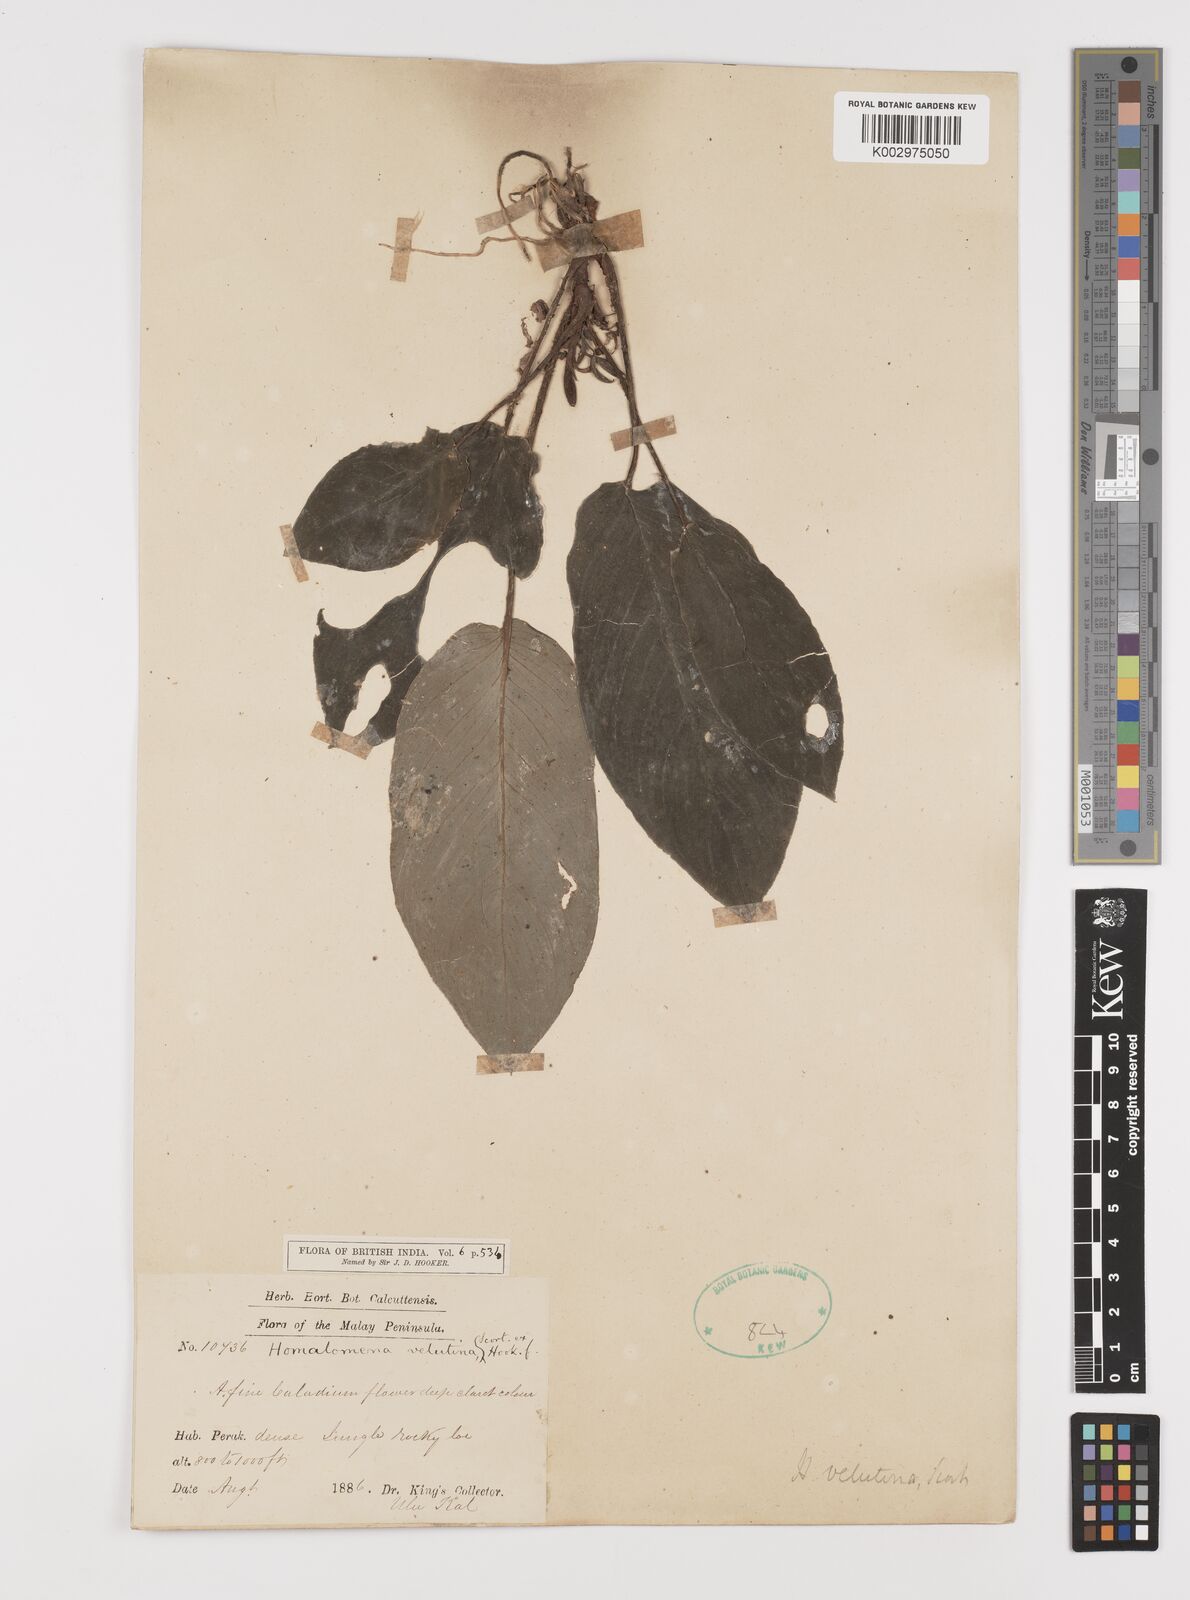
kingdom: Plantae
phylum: Tracheophyta
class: Liliopsida
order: Alismatales
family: Araceae
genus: Homalomena
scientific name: Homalomena humilis
